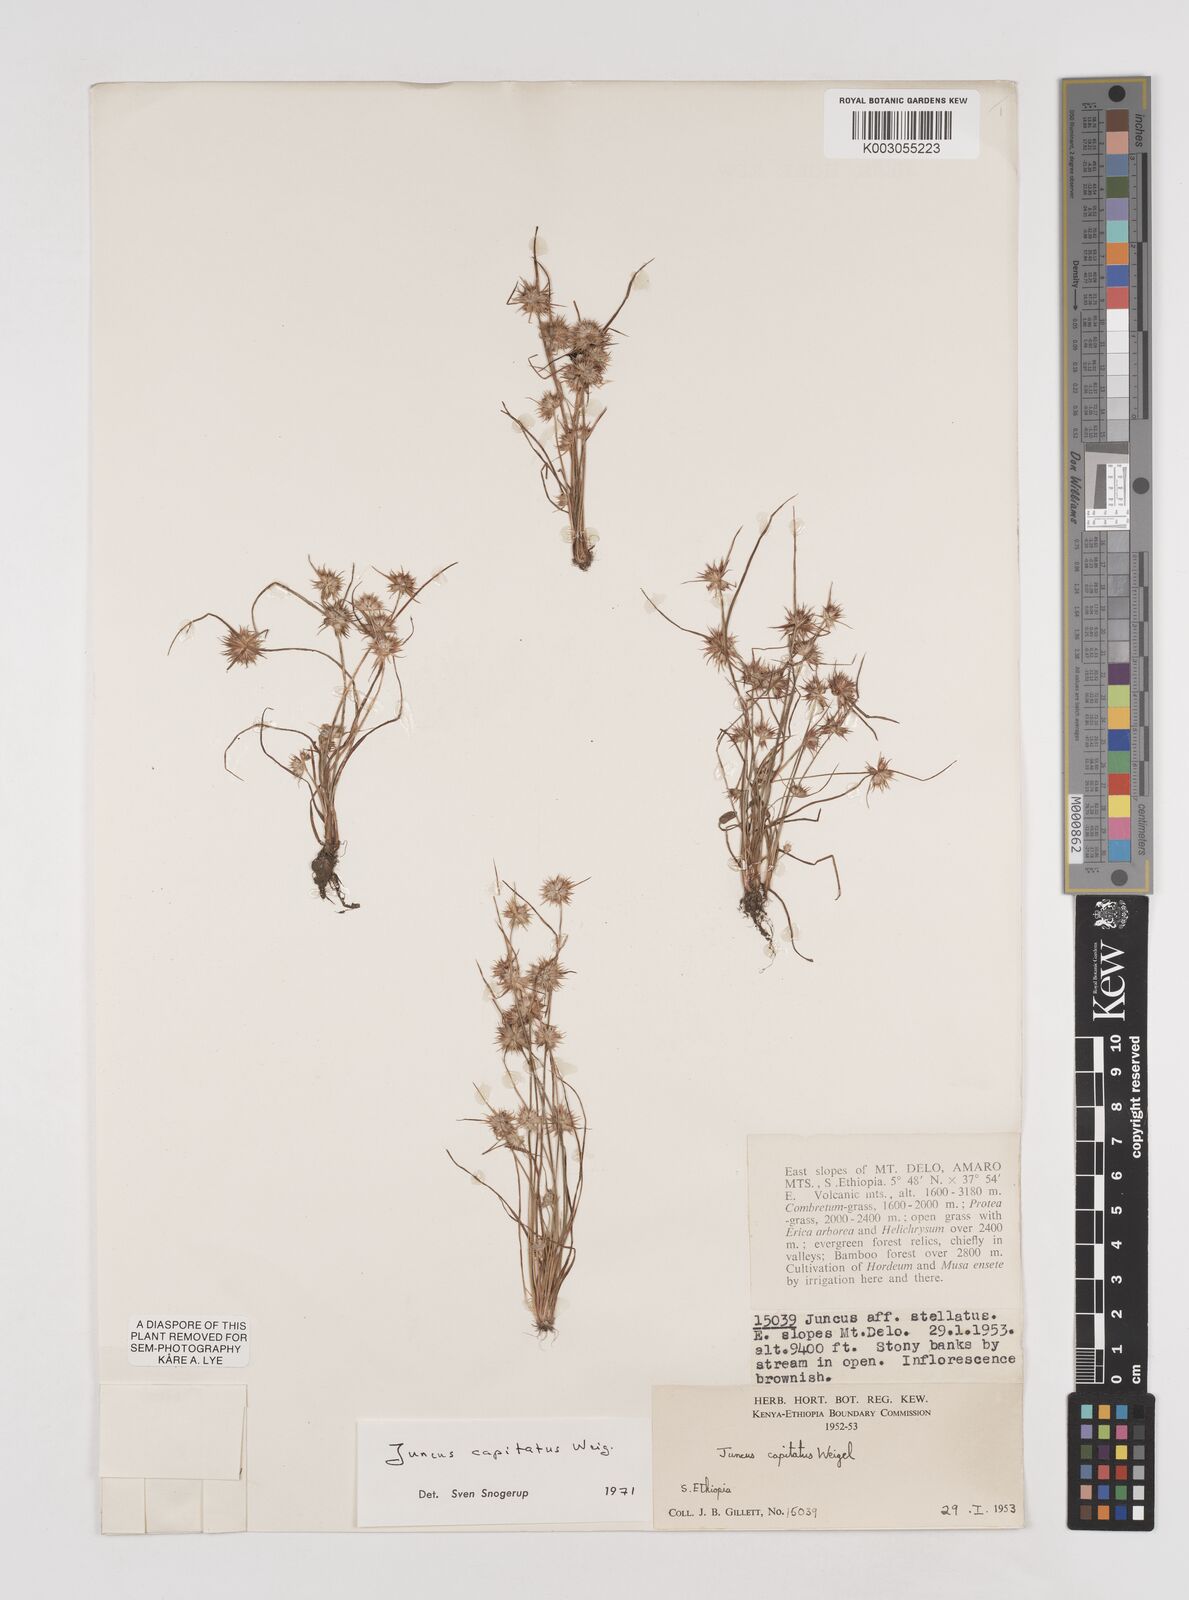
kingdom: Plantae
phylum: Tracheophyta
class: Liliopsida
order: Poales
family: Juncaceae
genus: Juncus
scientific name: Juncus capitatus
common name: Dwarf rush
